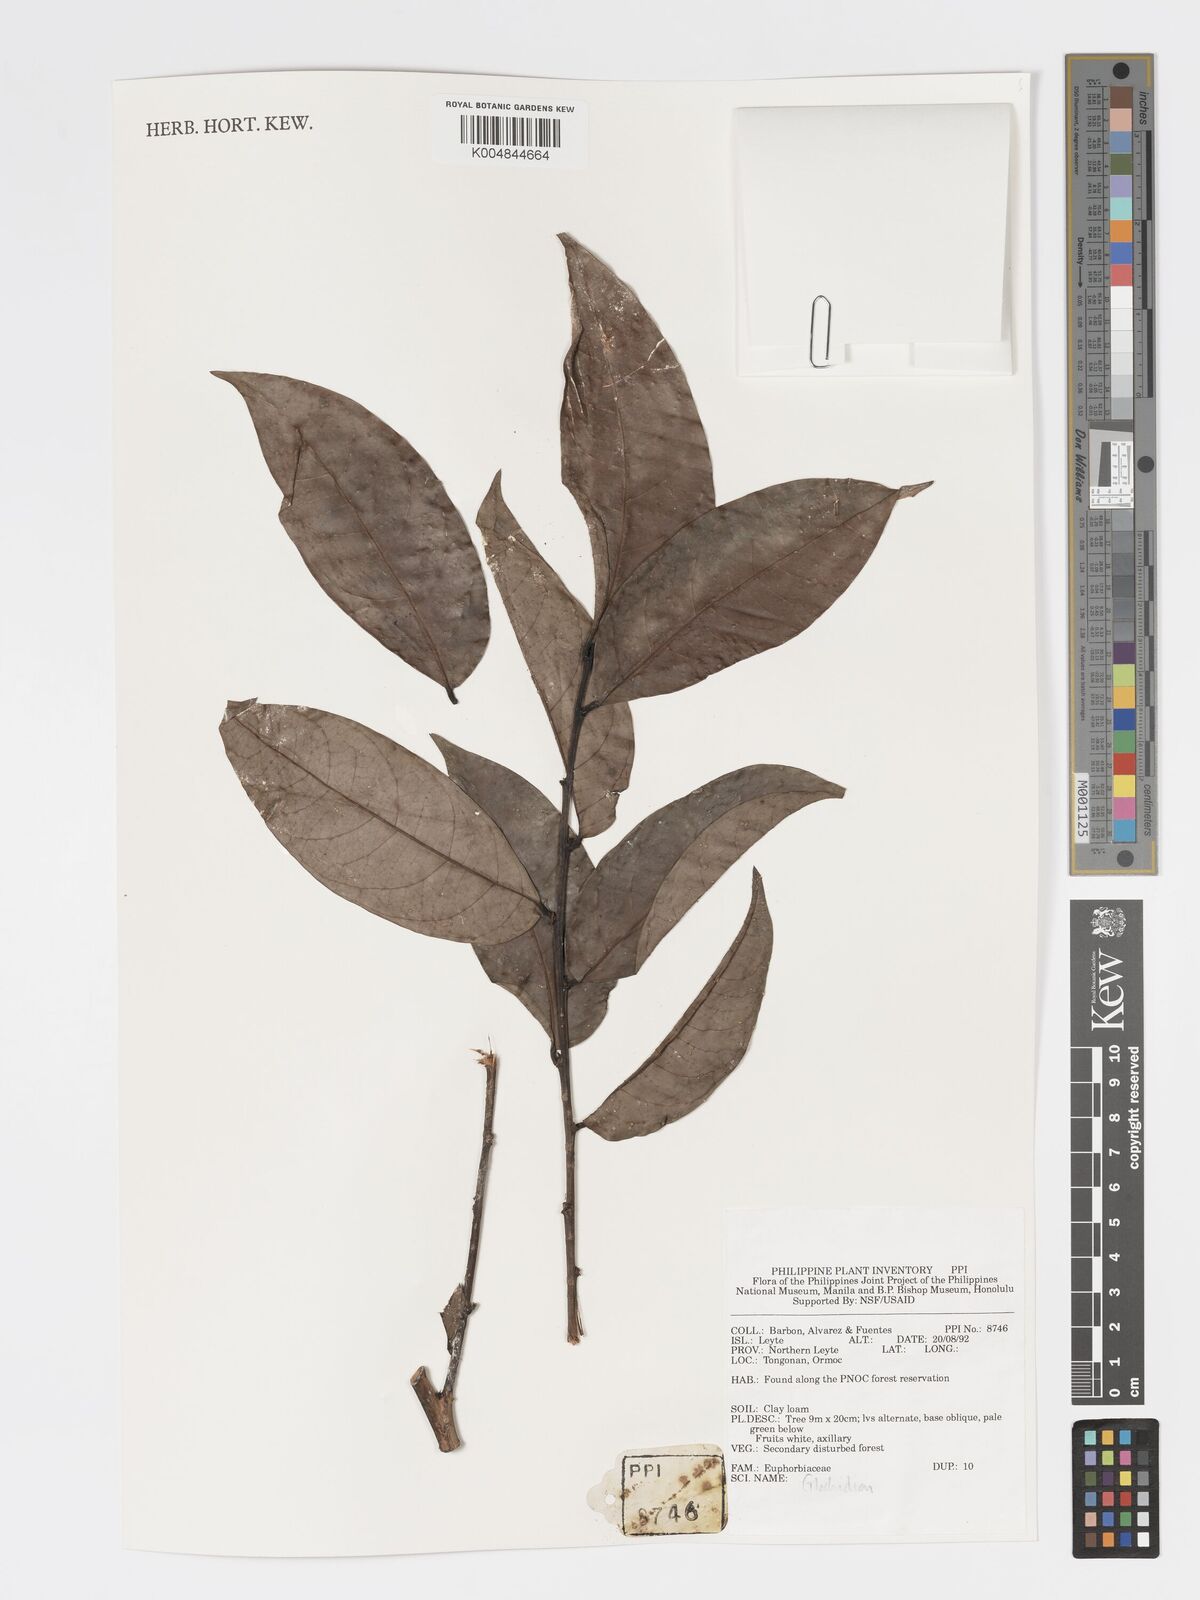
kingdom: Plantae
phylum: Tracheophyta
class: Magnoliopsida
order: Malpighiales
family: Phyllanthaceae
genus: Glochidion
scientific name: Glochidion
